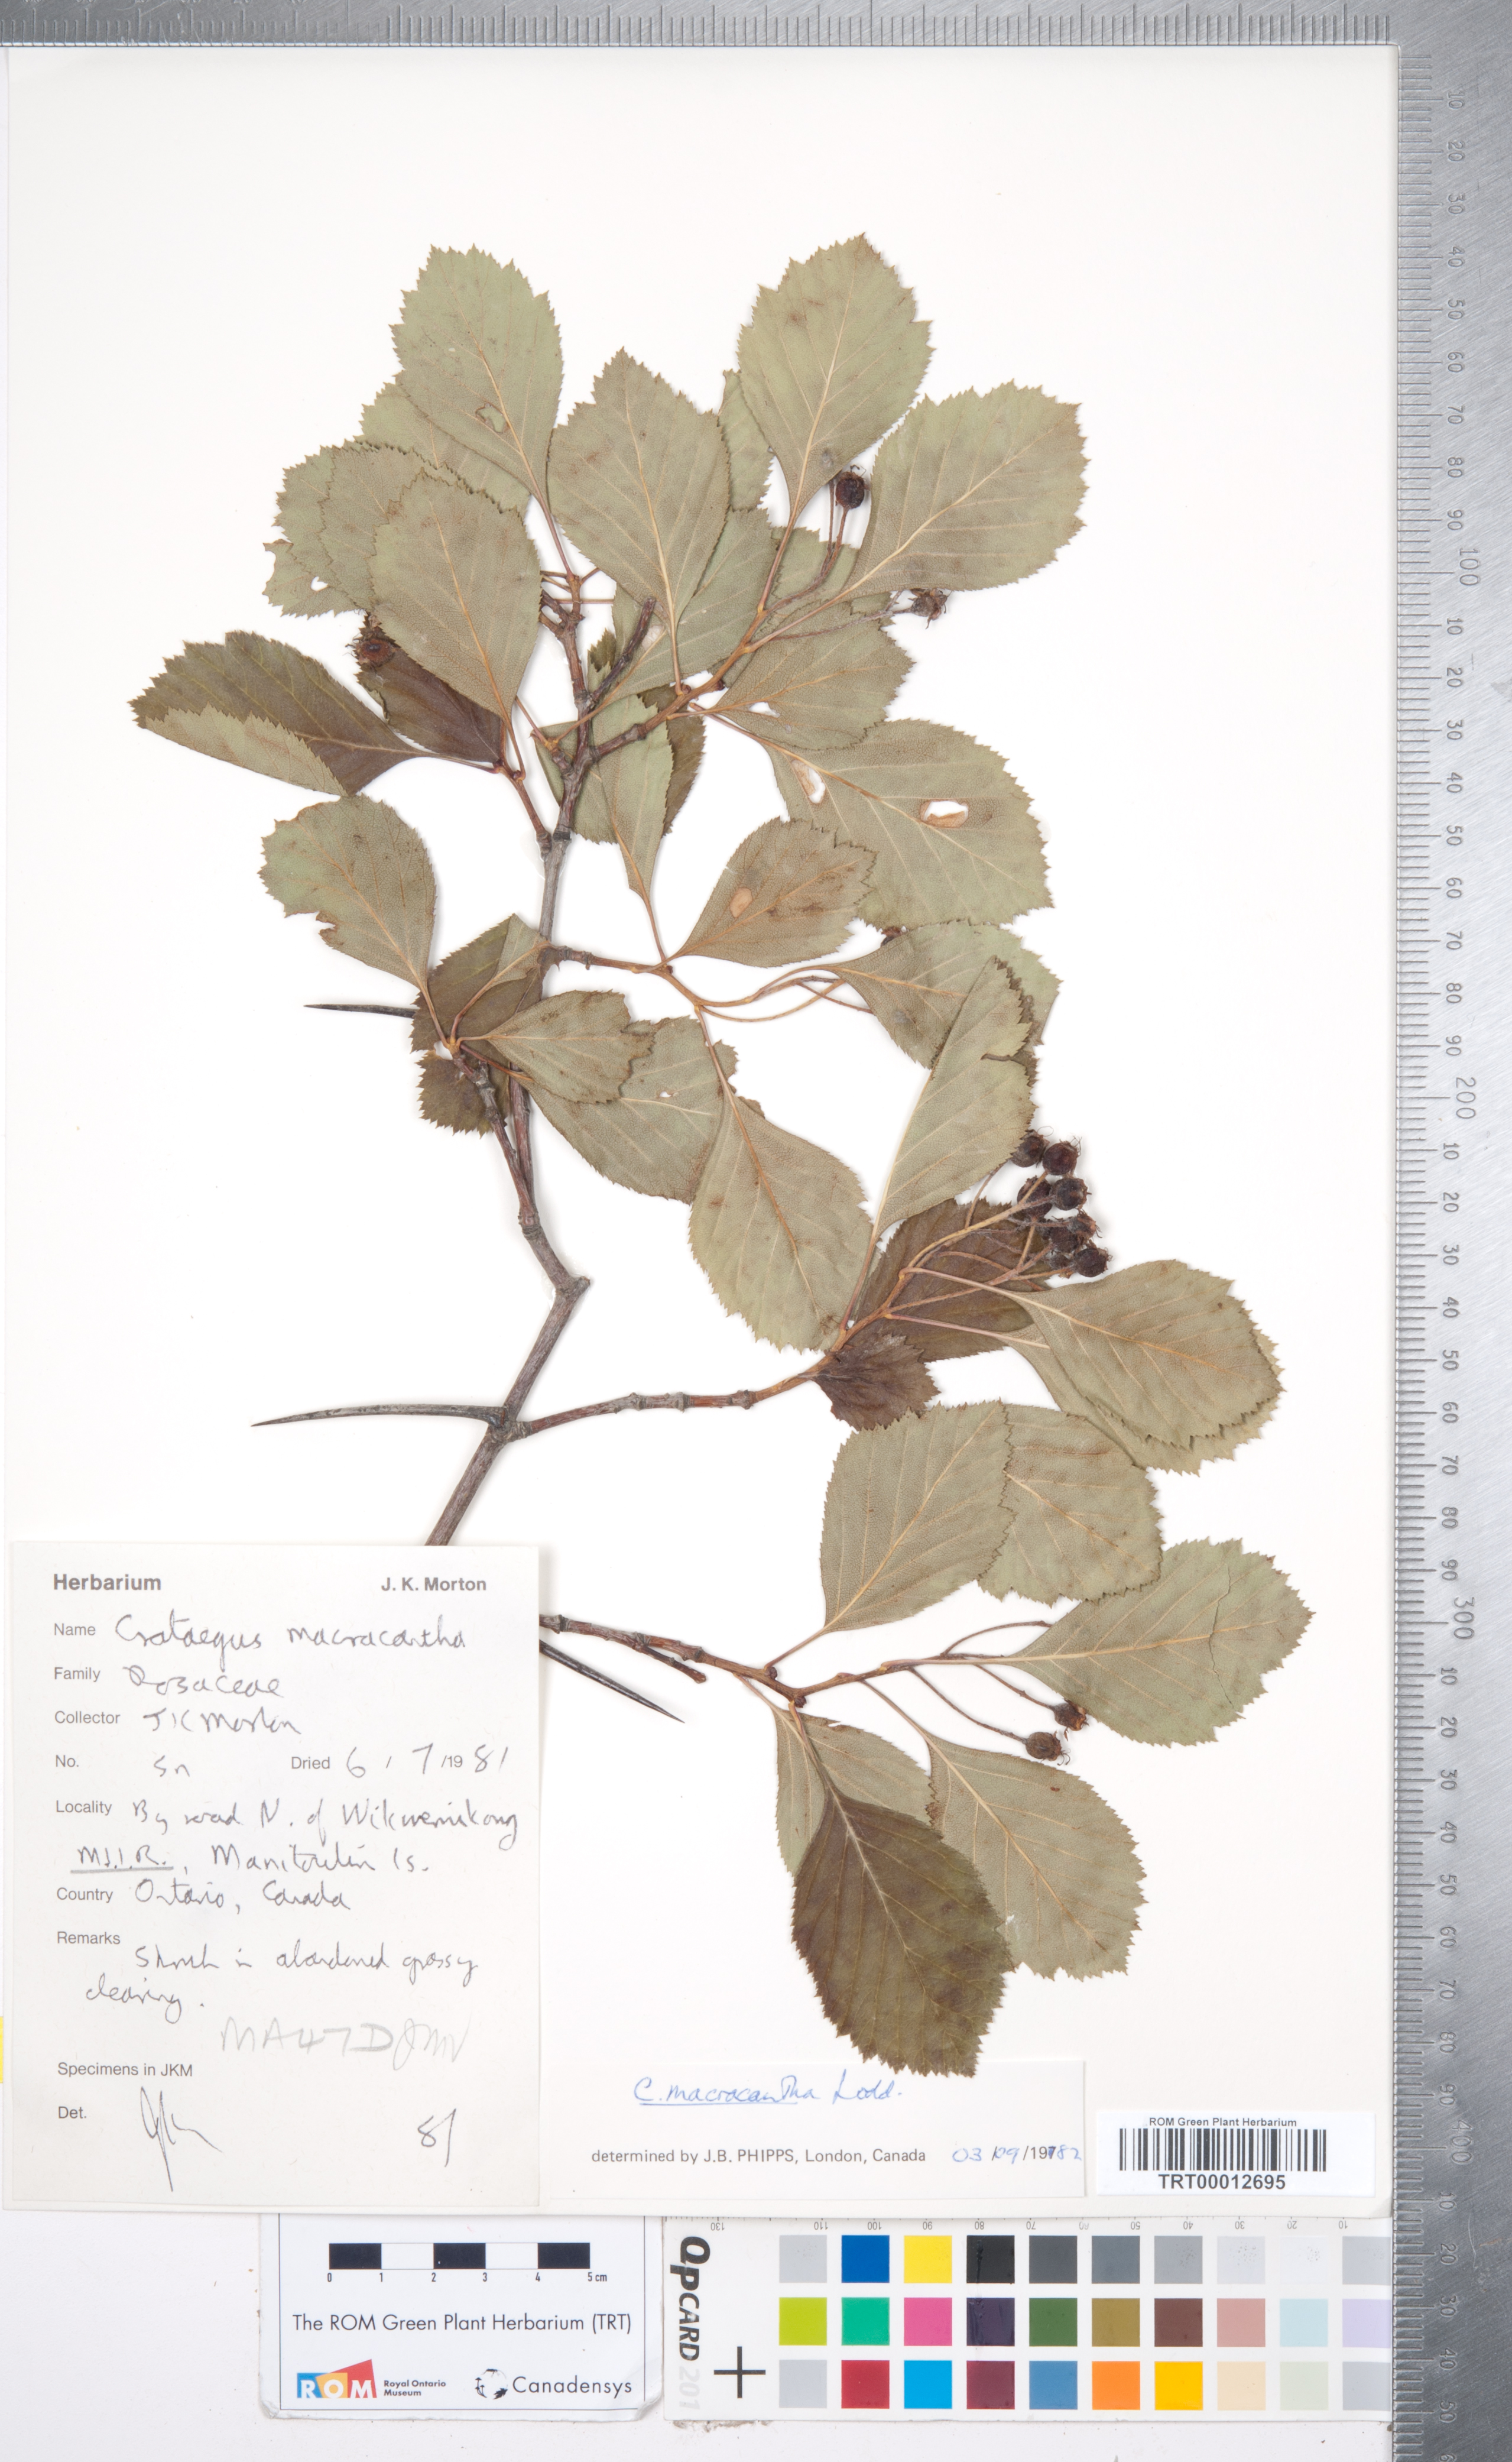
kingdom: Plantae
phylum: Tracheophyta
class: Magnoliopsida
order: Rosales
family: Rosaceae
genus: Crataegus
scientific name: Crataegus macracantha
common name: Large-thorn hawthorn
